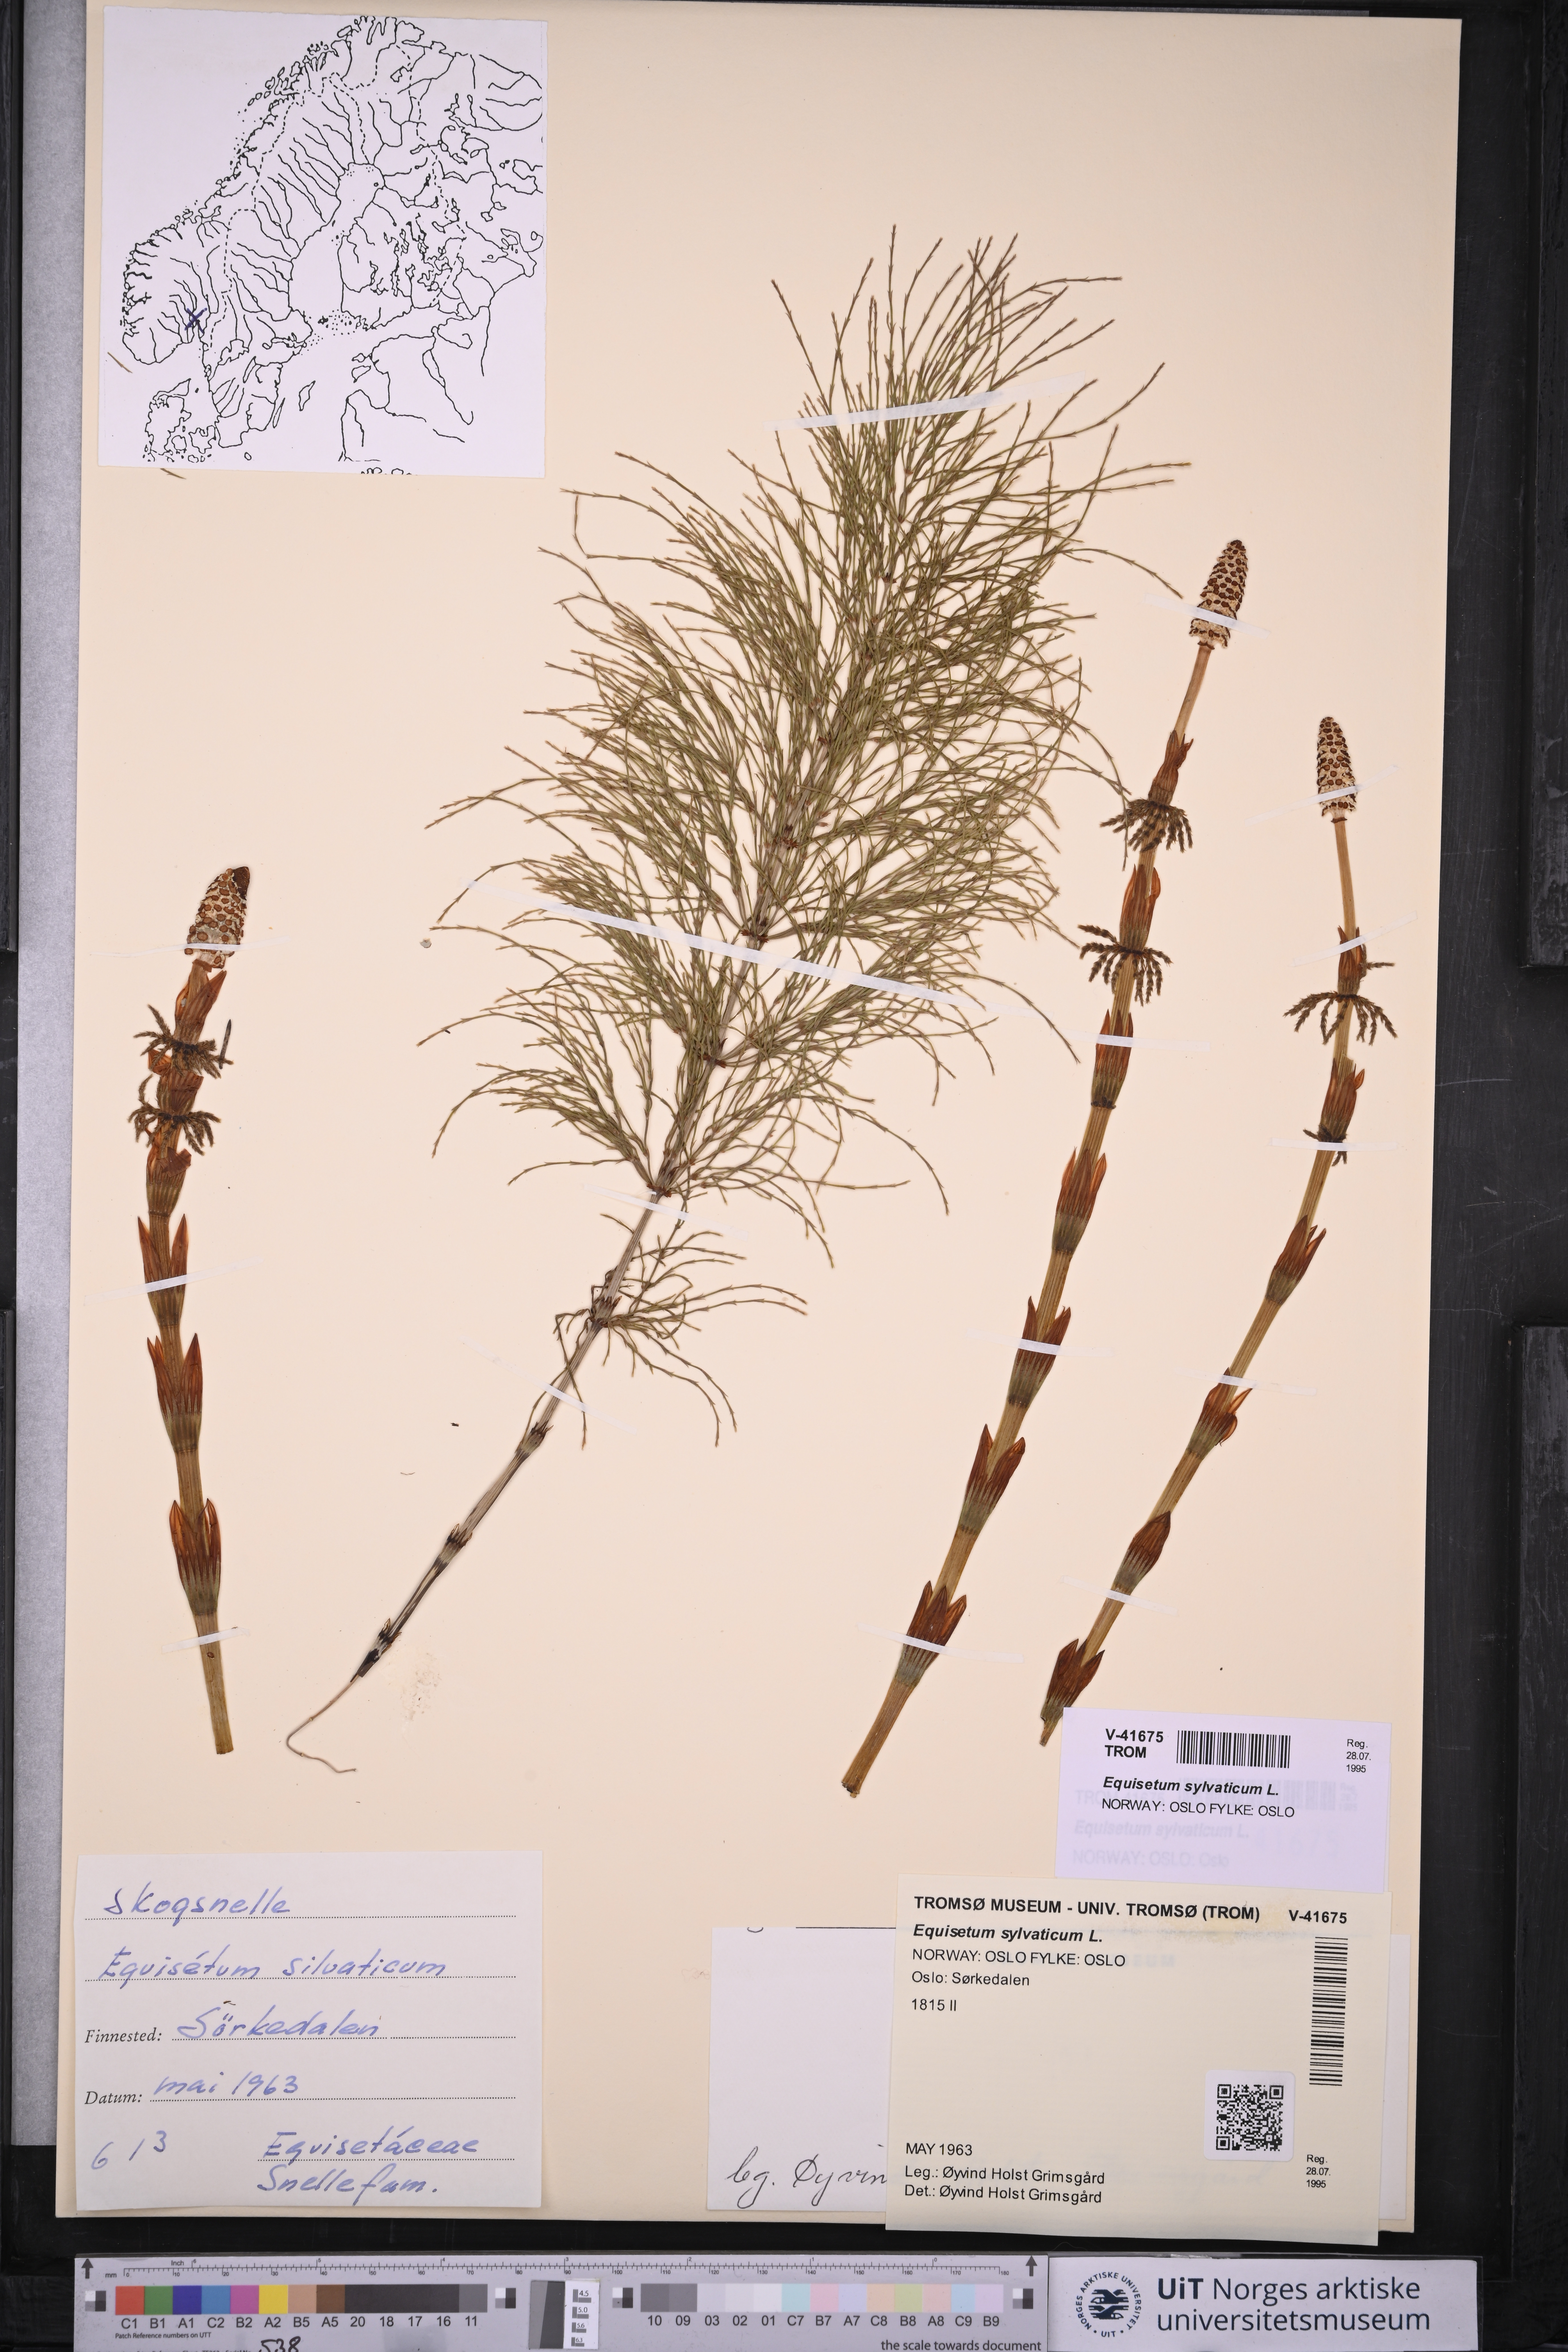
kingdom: Plantae
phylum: Tracheophyta
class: Polypodiopsida
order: Equisetales
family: Equisetaceae
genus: Equisetum
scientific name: Equisetum sylvaticum
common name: Wood horsetail
